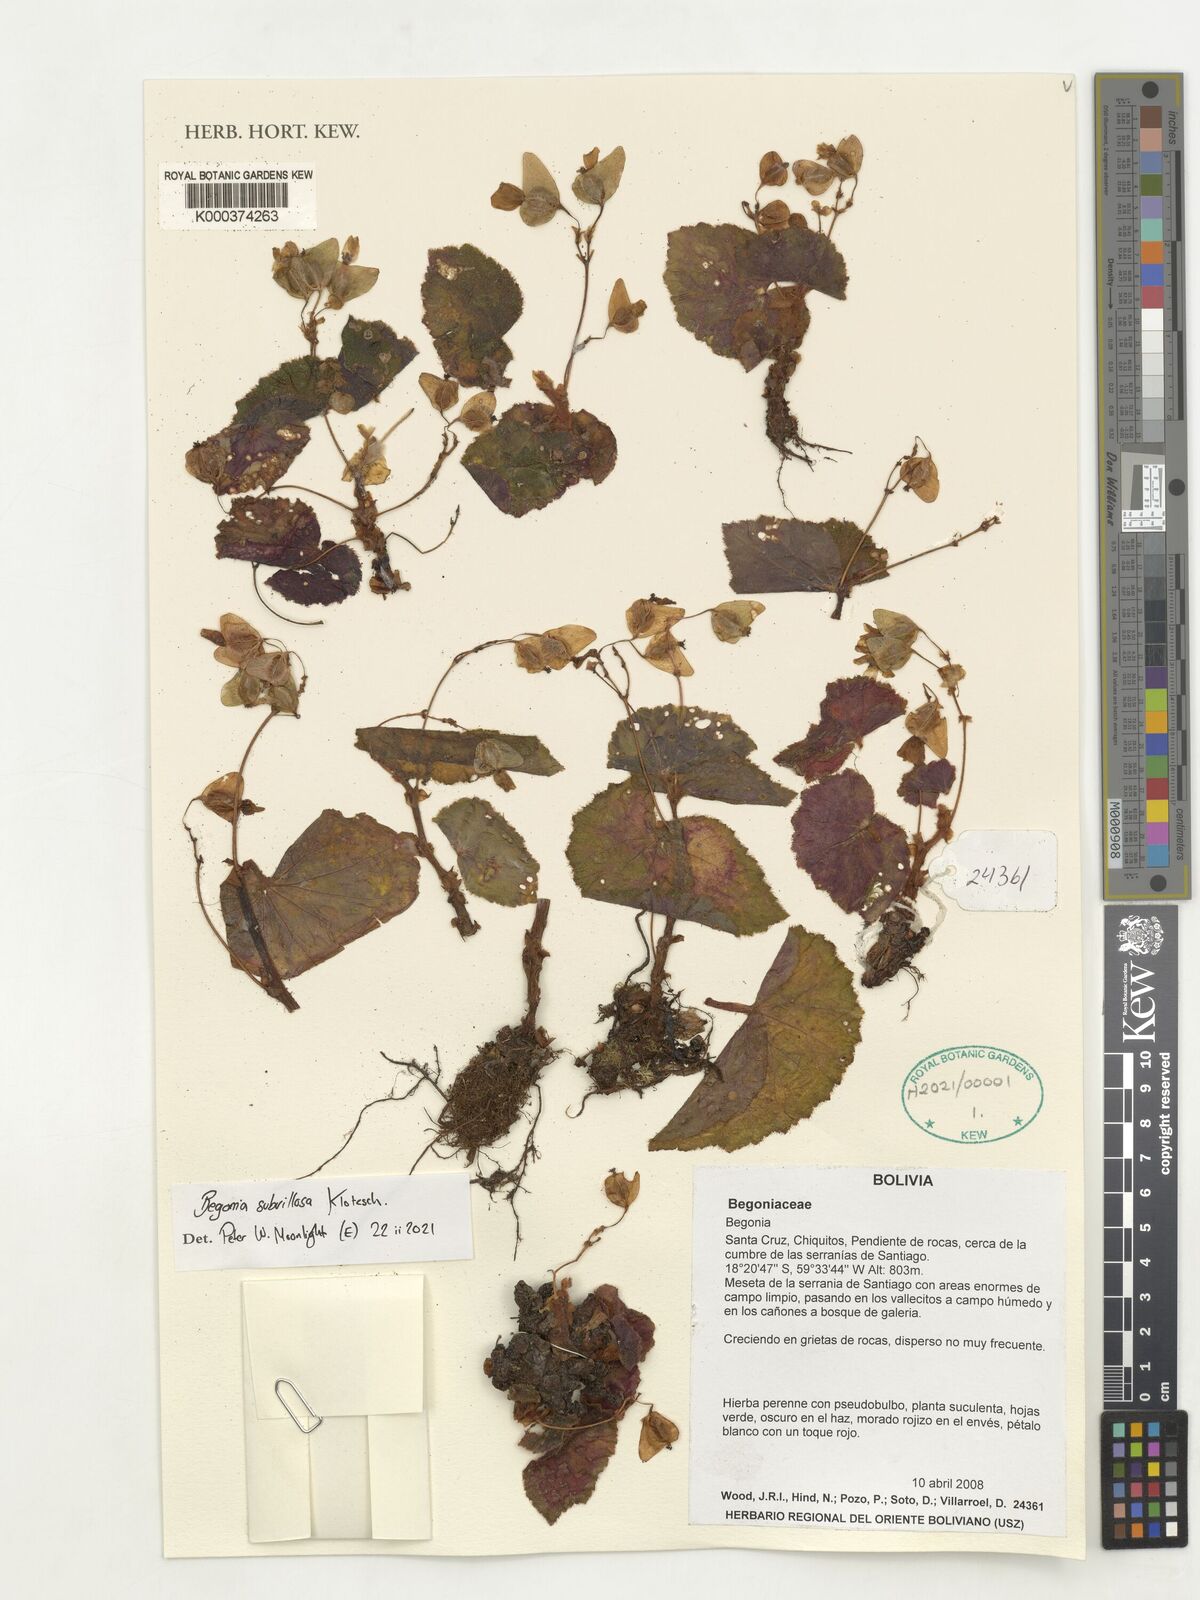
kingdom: Plantae
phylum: Tracheophyta
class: Magnoliopsida
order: Cucurbitales
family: Begoniaceae
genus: Begonia
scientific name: Begonia subvillosa
